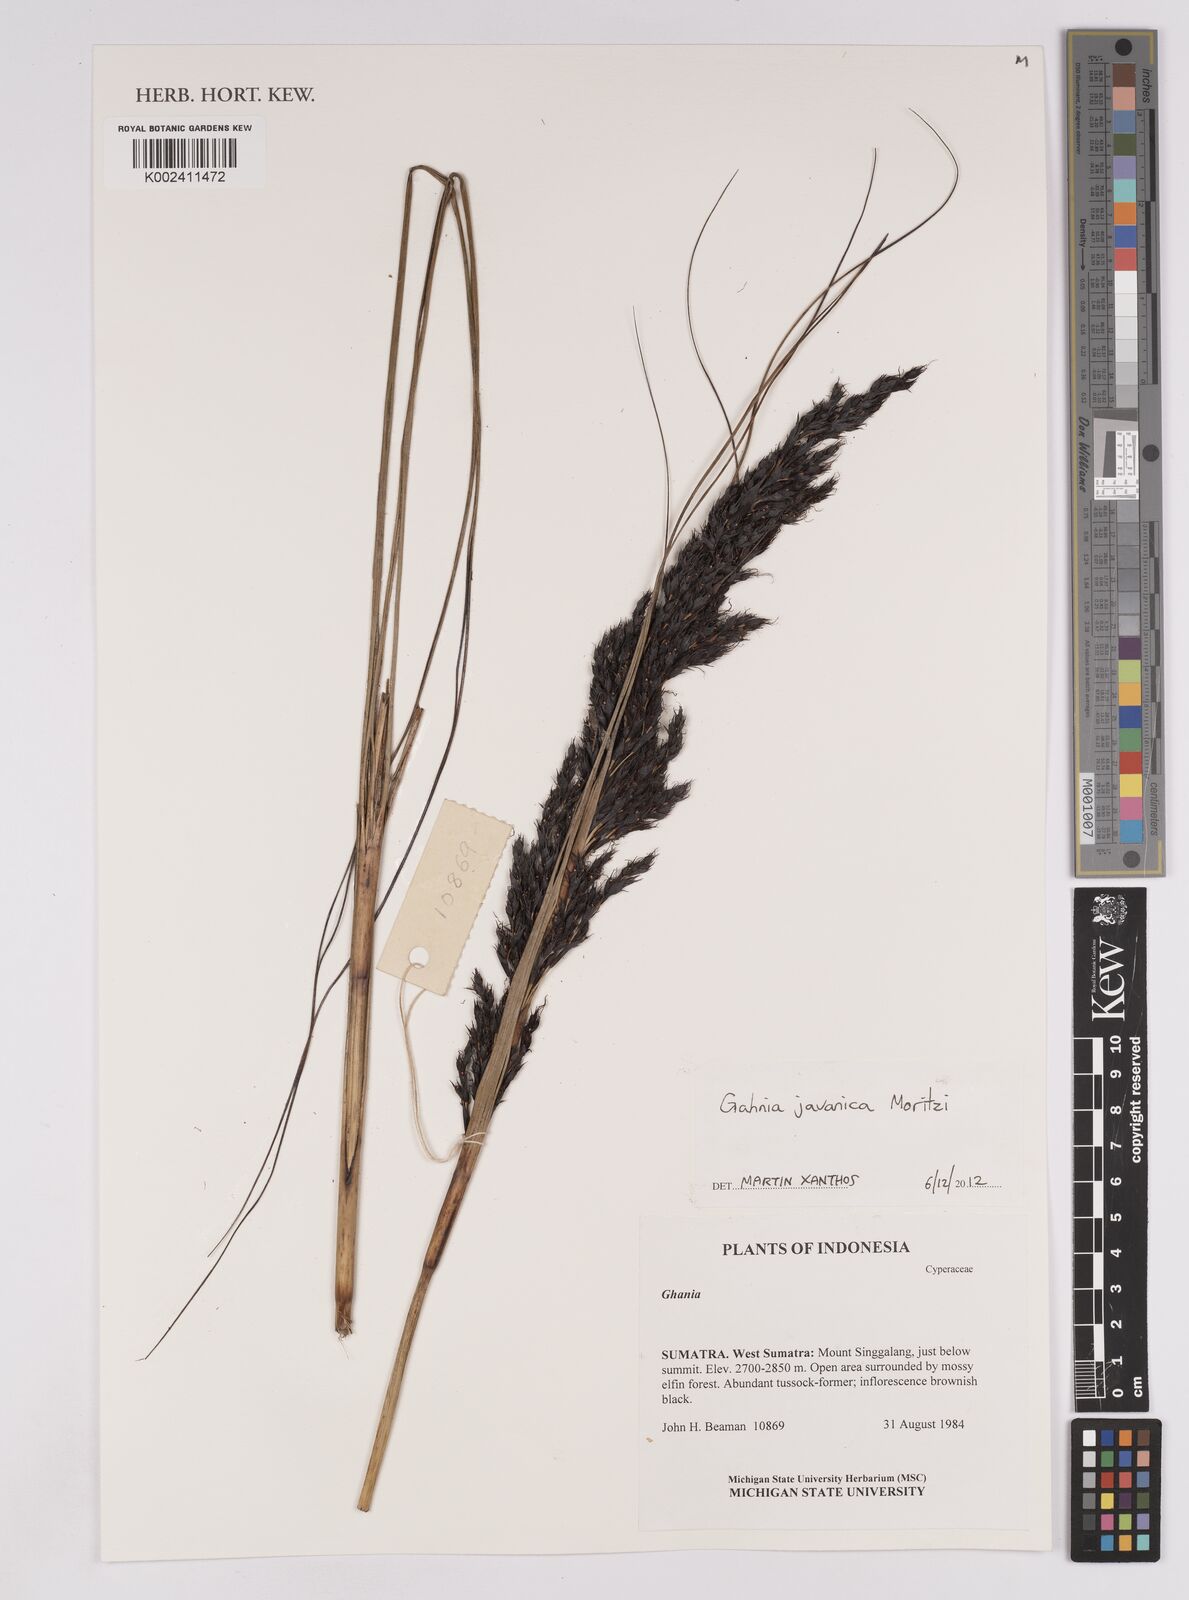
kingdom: Plantae
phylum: Tracheophyta
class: Liliopsida
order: Poales
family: Cyperaceae
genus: Gahnia
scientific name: Gahnia javanica
